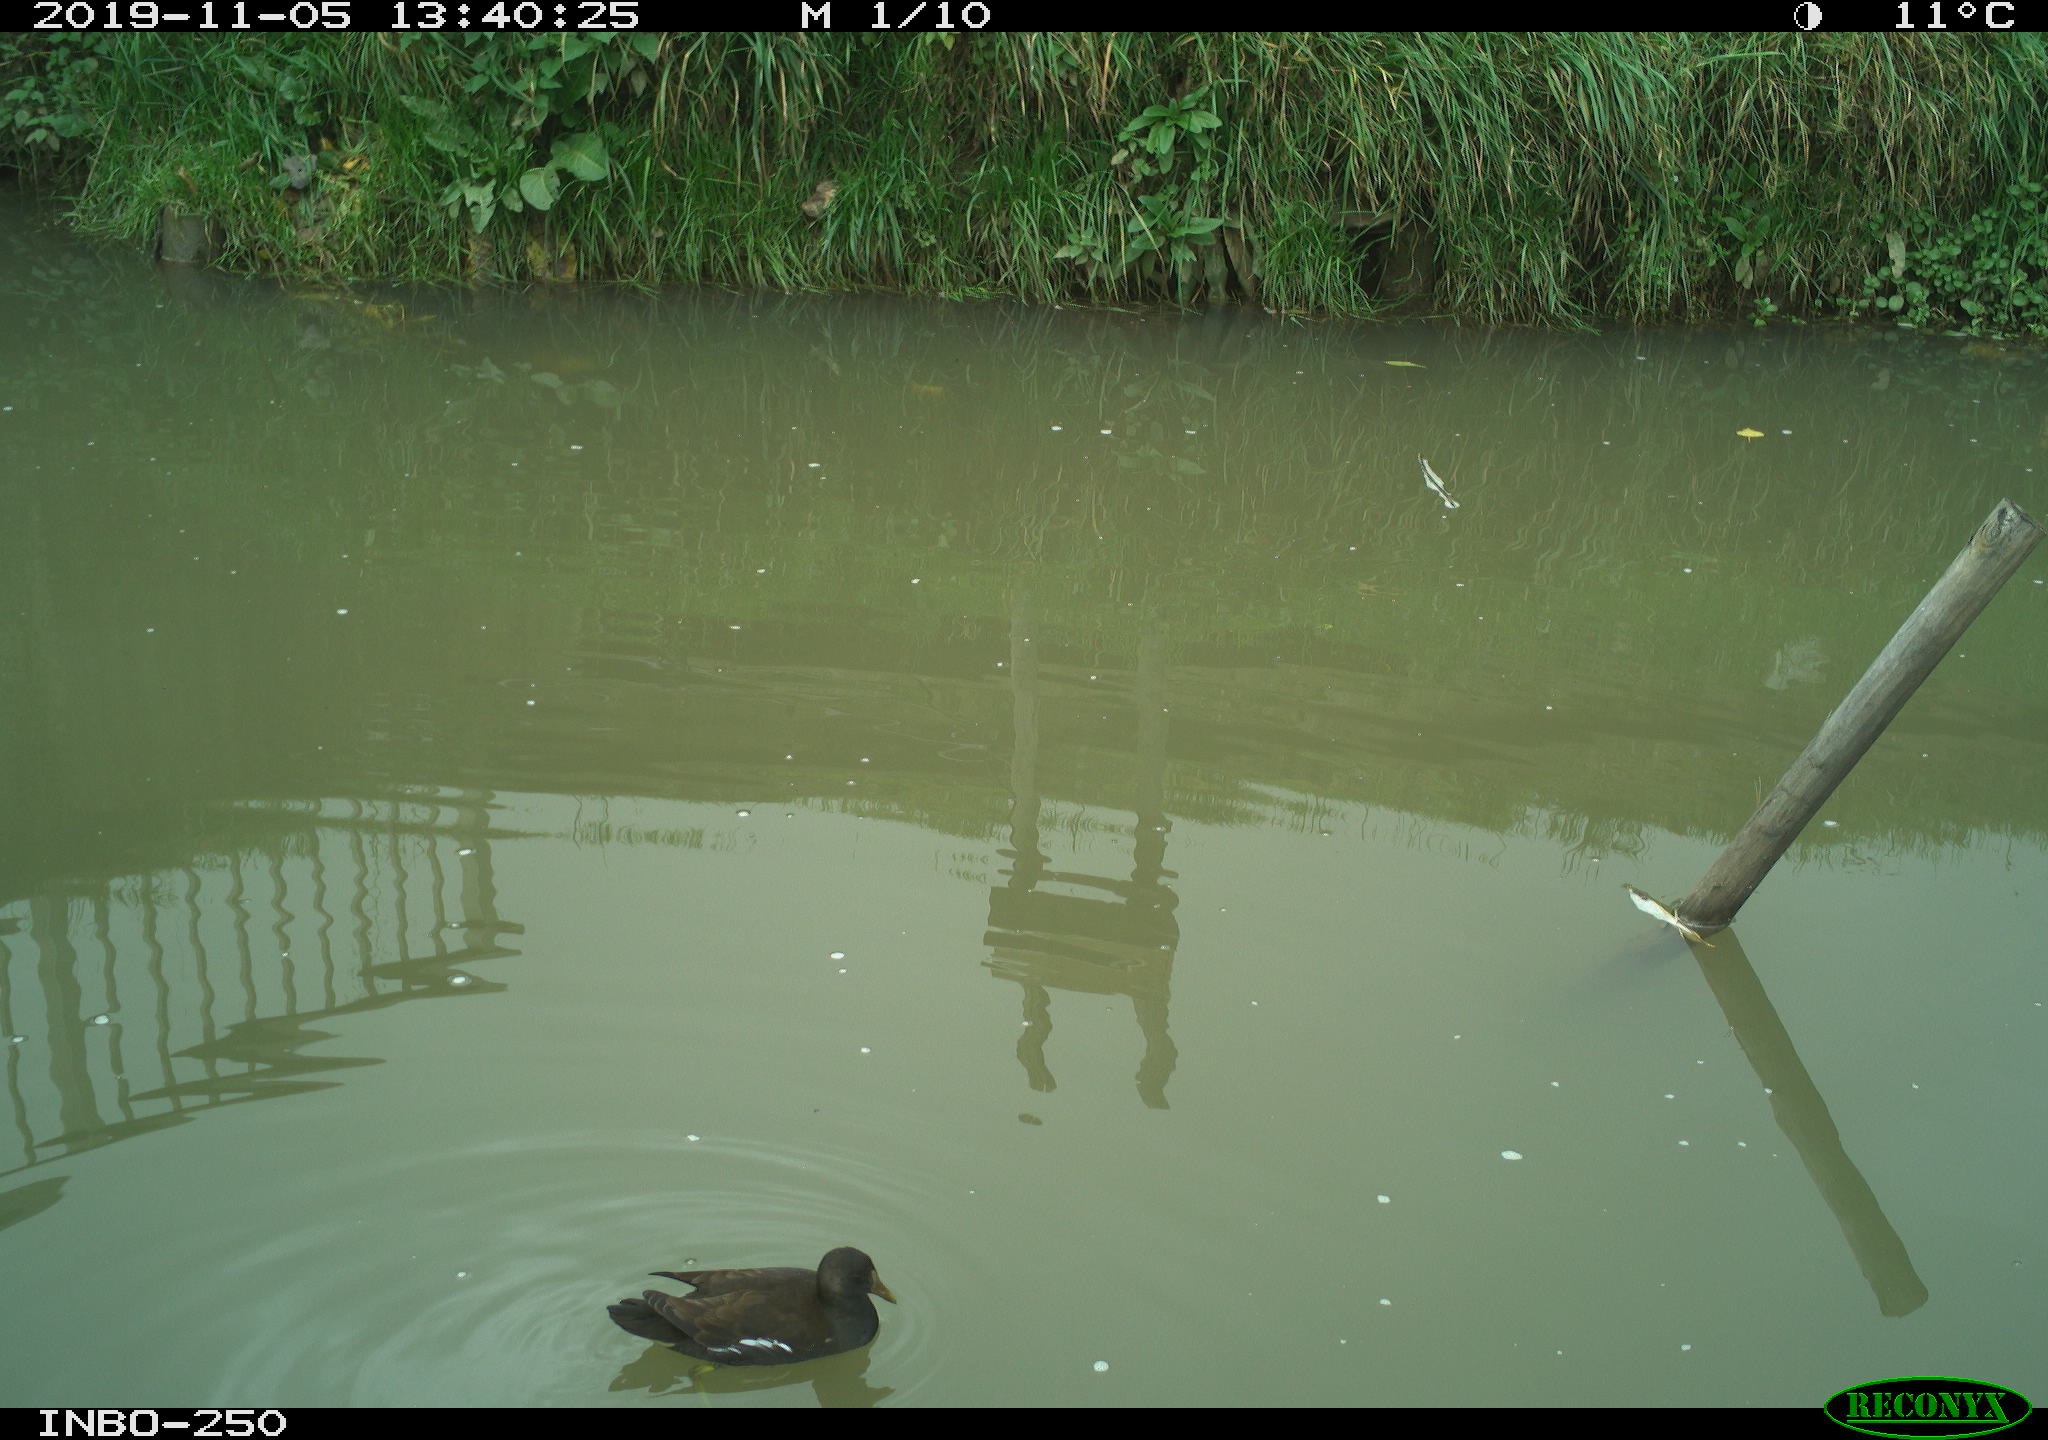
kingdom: Animalia
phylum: Chordata
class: Aves
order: Gruiformes
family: Rallidae
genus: Gallinula
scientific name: Gallinula chloropus
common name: Common moorhen
